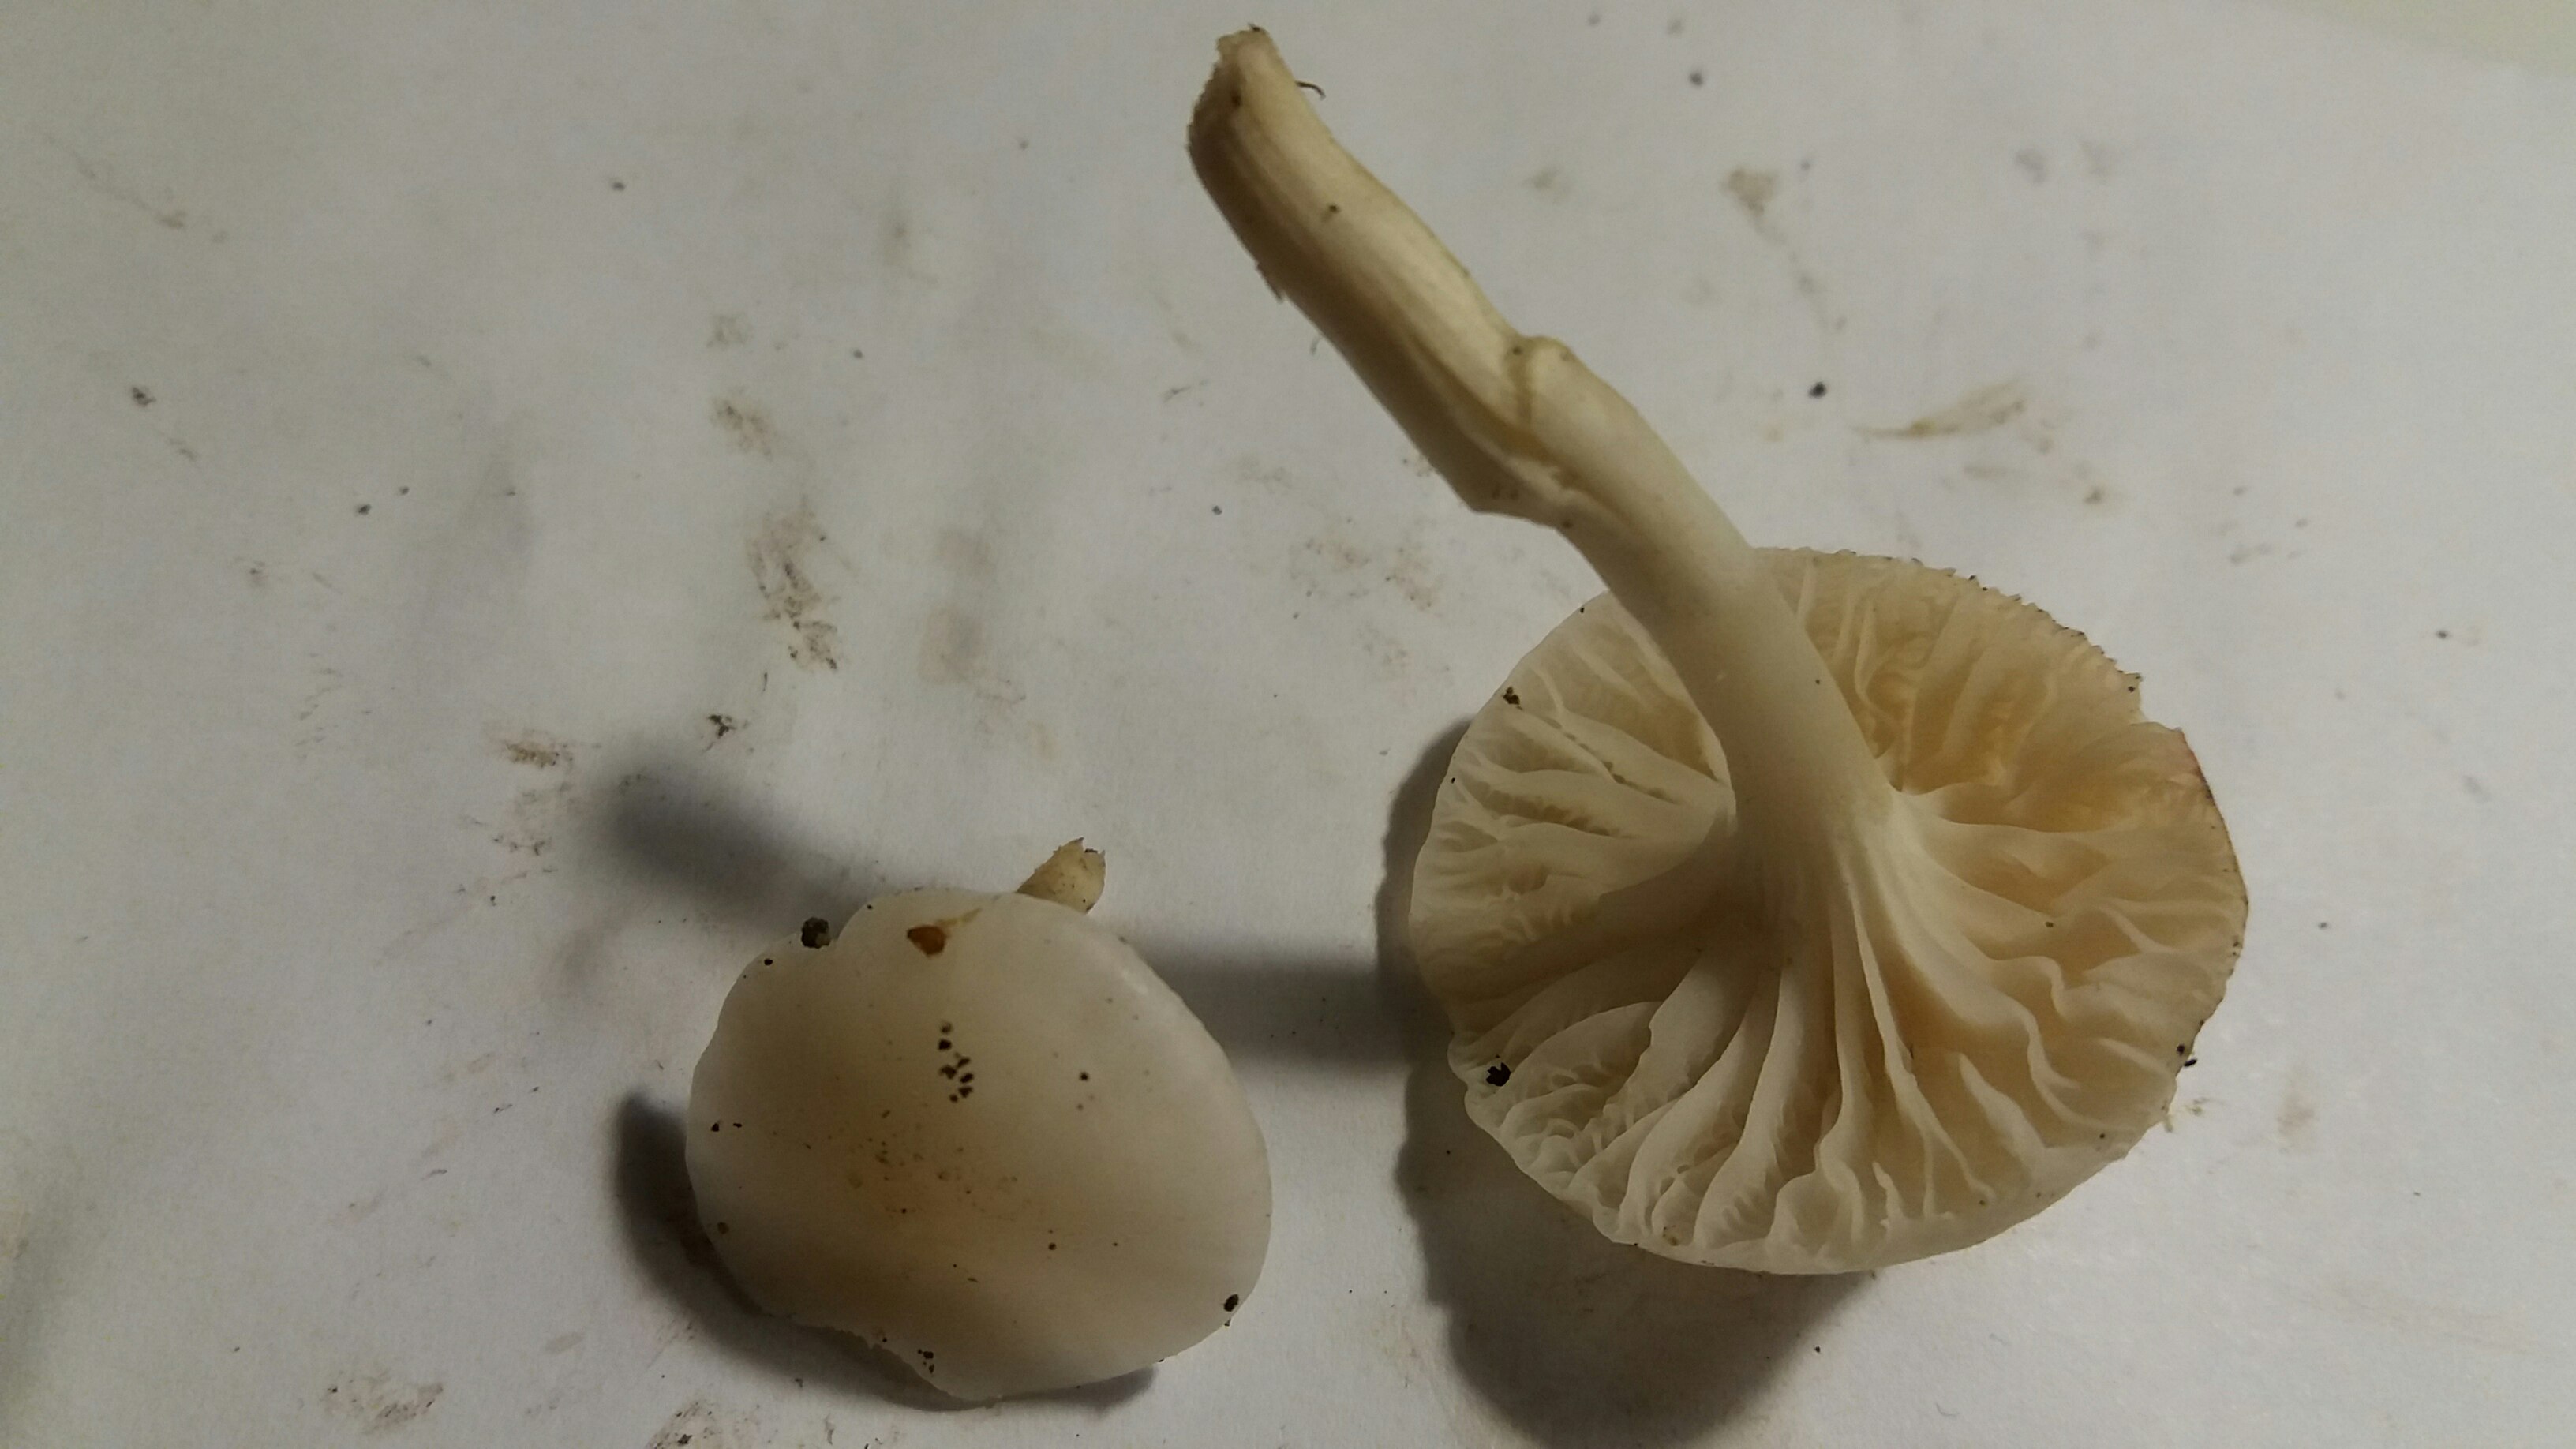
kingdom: Fungi
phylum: Basidiomycota
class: Agaricomycetes
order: Agaricales
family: Hygrophoraceae
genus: Cuphophyllus
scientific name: Cuphophyllus virgineus
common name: snehvid vokshat
